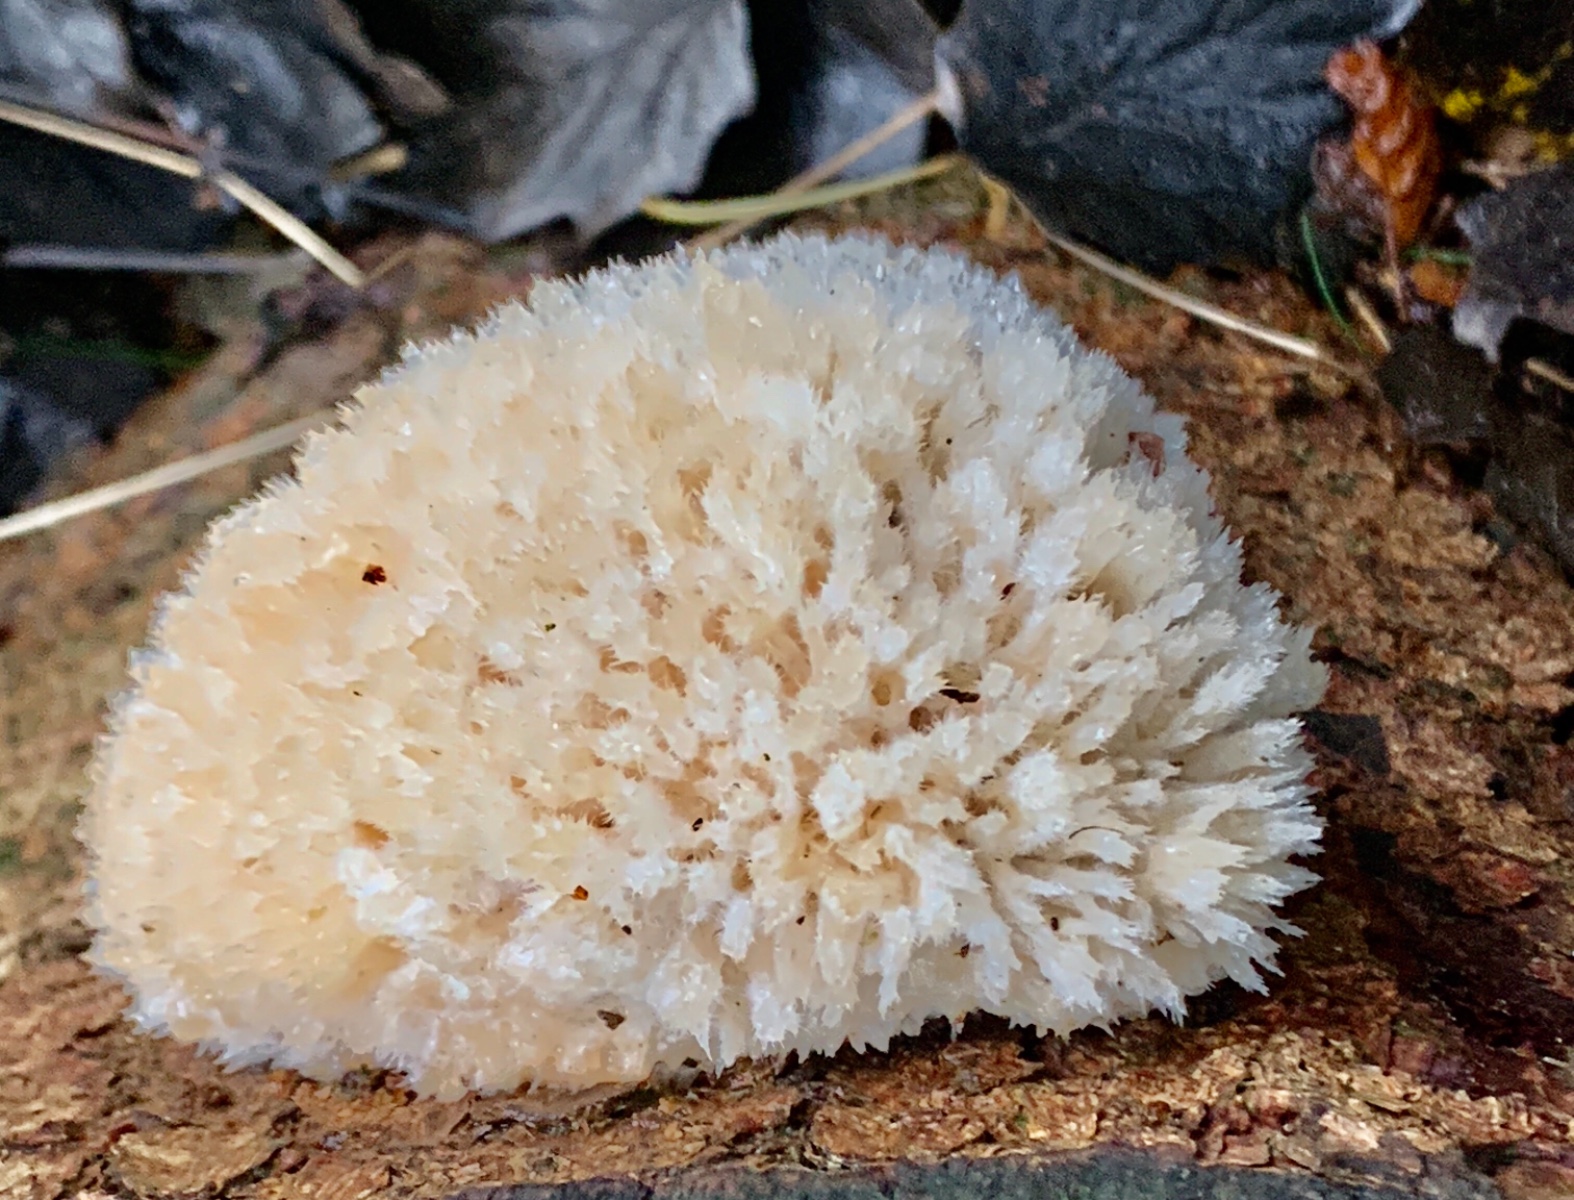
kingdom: Fungi
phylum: Basidiomycota
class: Agaricomycetes
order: Polyporales
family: Dacryobolaceae
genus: Postia
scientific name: Postia ptychogaster
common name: støvende kødporesvamp
